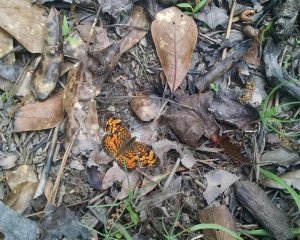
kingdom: Animalia
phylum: Arthropoda
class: Insecta
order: Lepidoptera
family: Nymphalidae
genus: Phyciodes
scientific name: Phyciodes tharos
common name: Pearl Crescent
